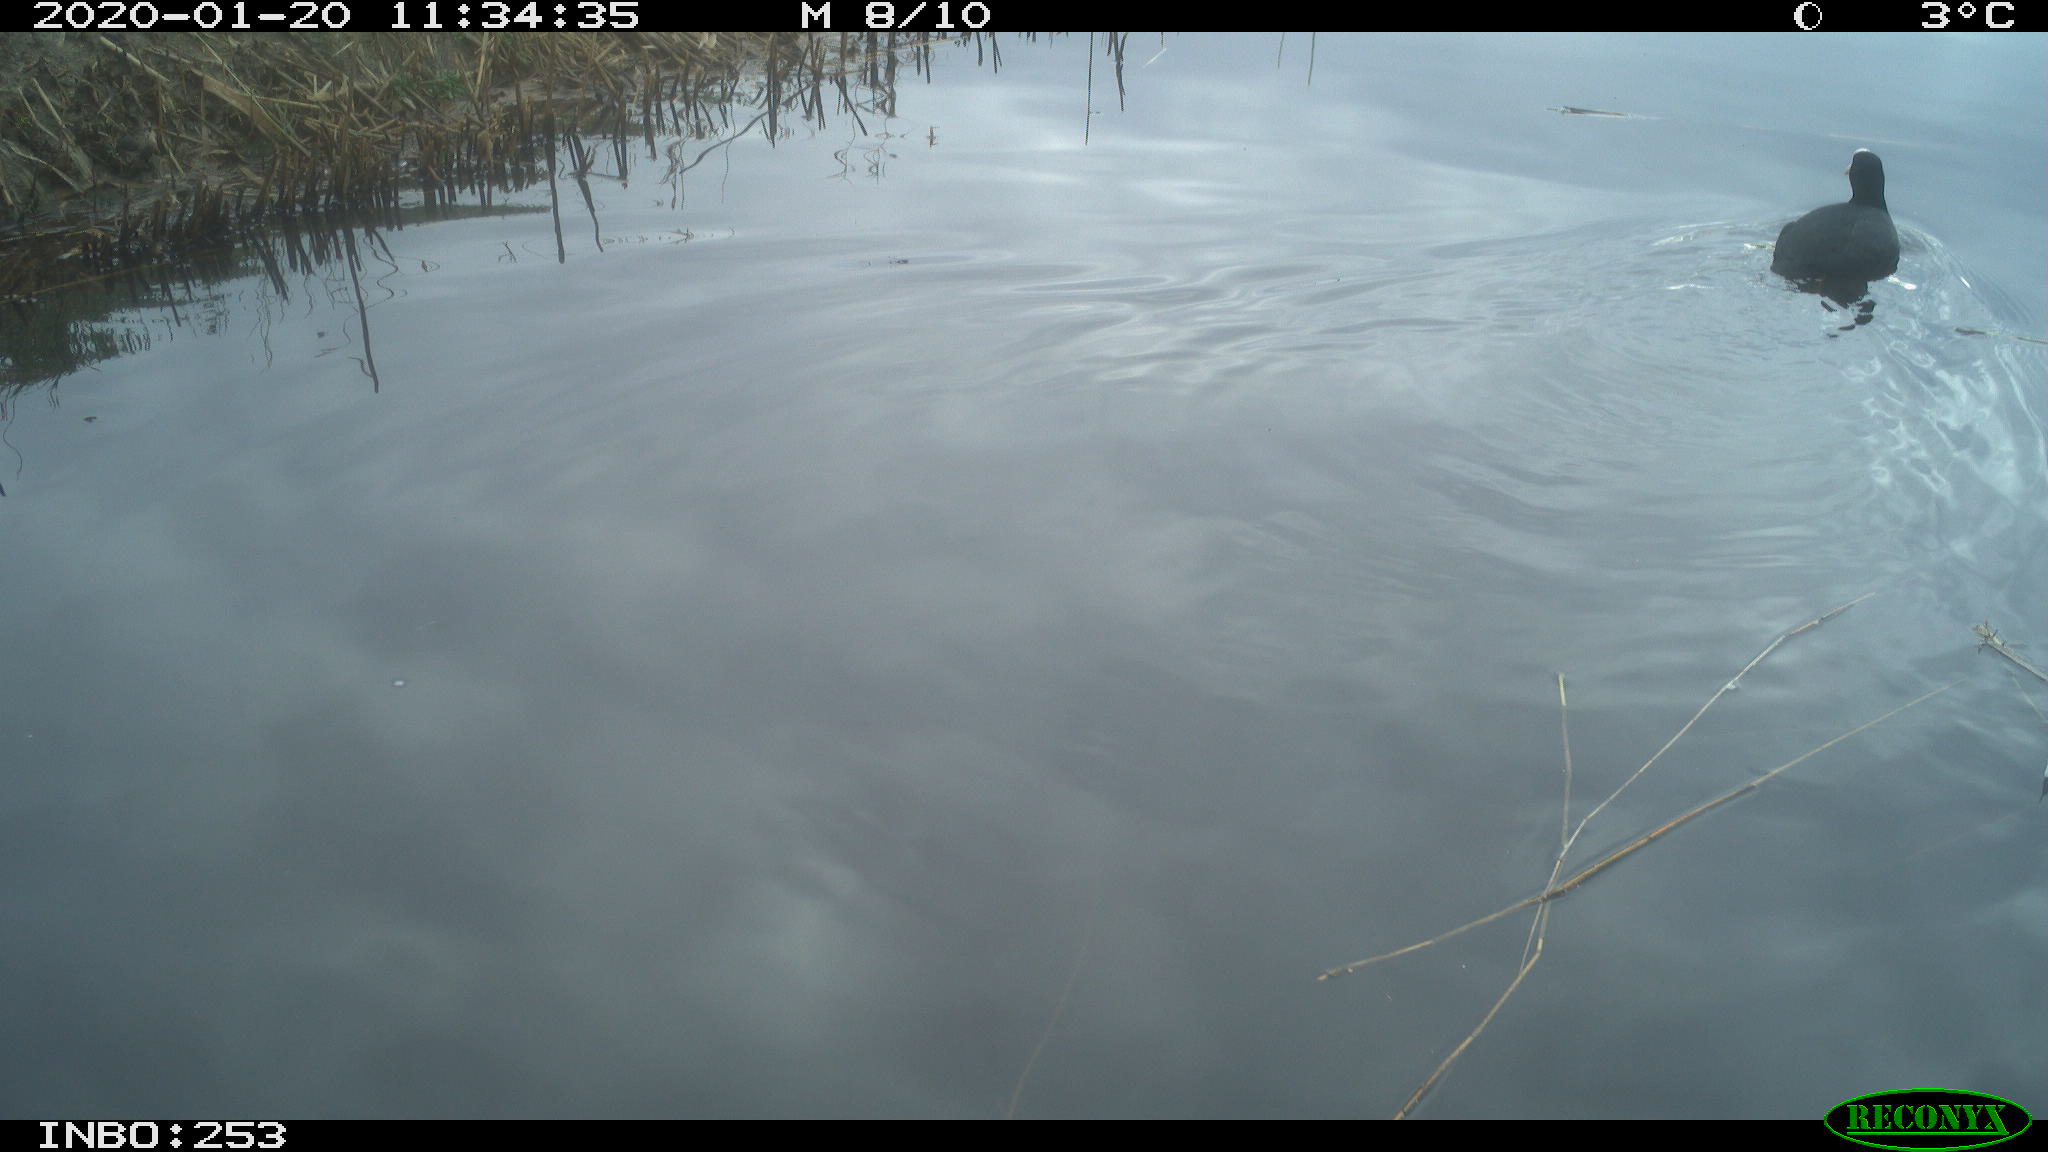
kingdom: Animalia
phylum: Chordata
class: Aves
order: Gruiformes
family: Rallidae
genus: Fulica
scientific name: Fulica atra
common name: Eurasian coot
